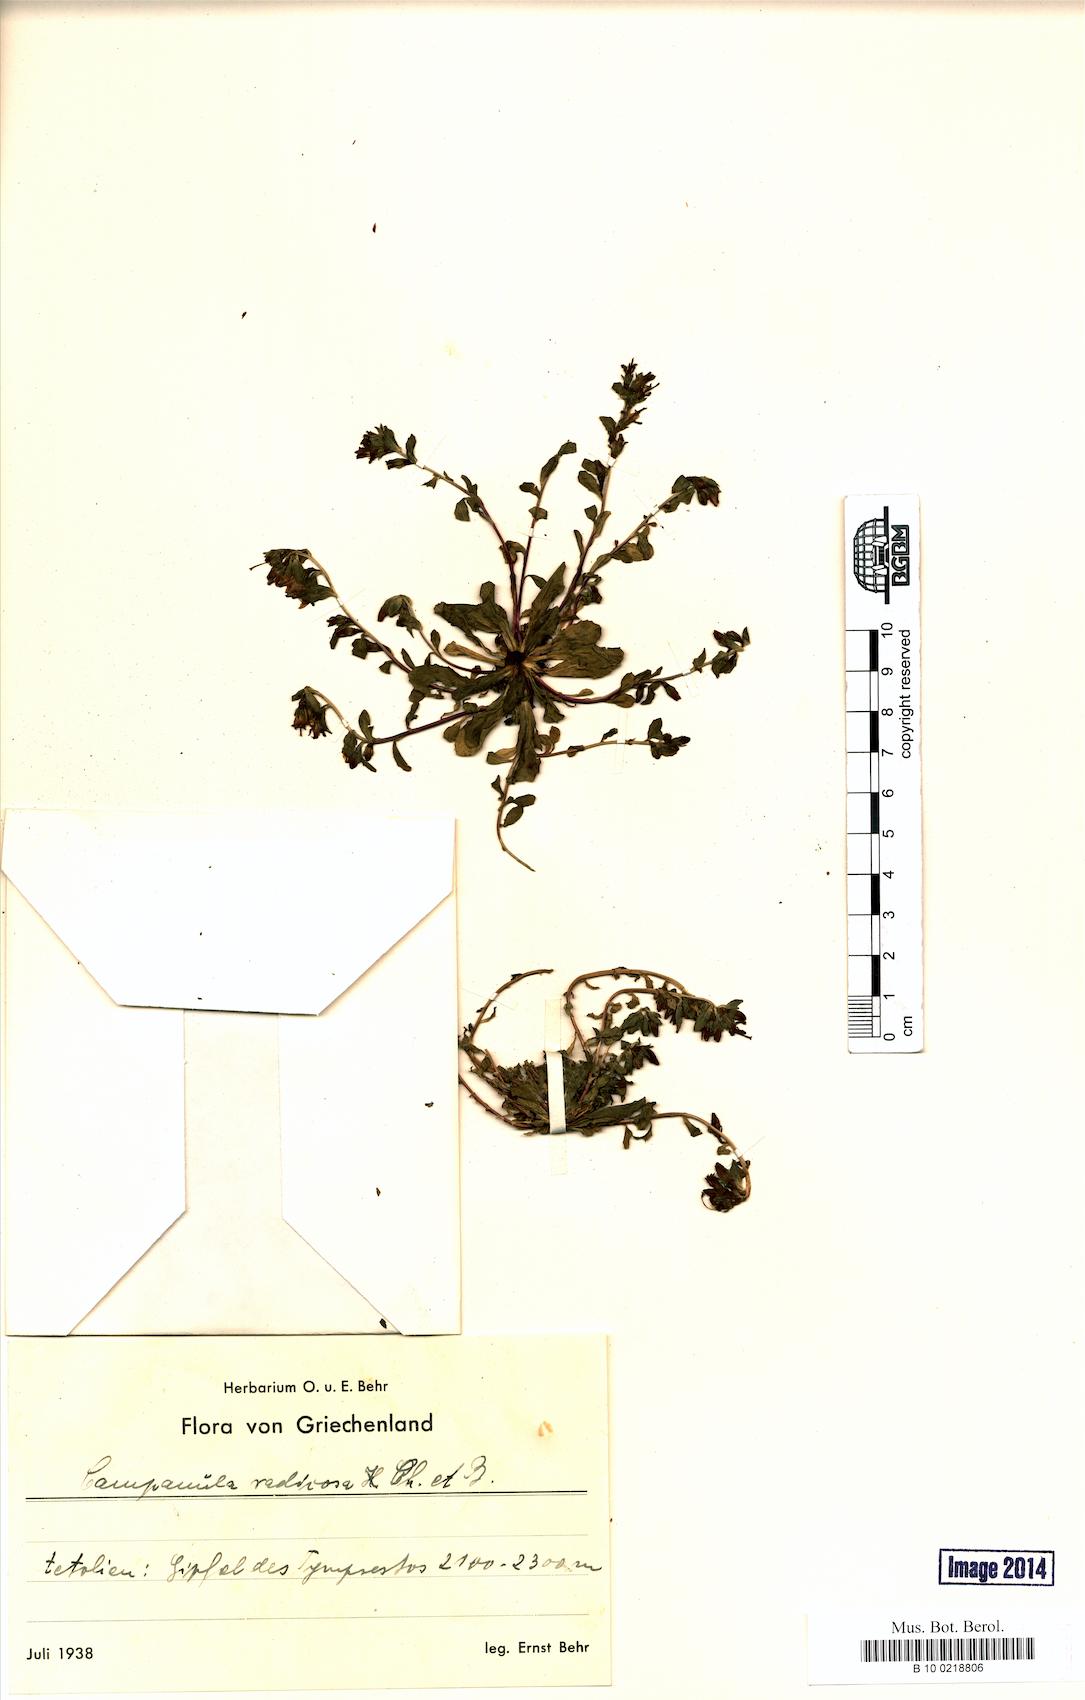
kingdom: Plantae
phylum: Tracheophyta
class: Magnoliopsida
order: Asterales
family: Campanulaceae
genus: Campanula
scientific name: Campanula radicosa
